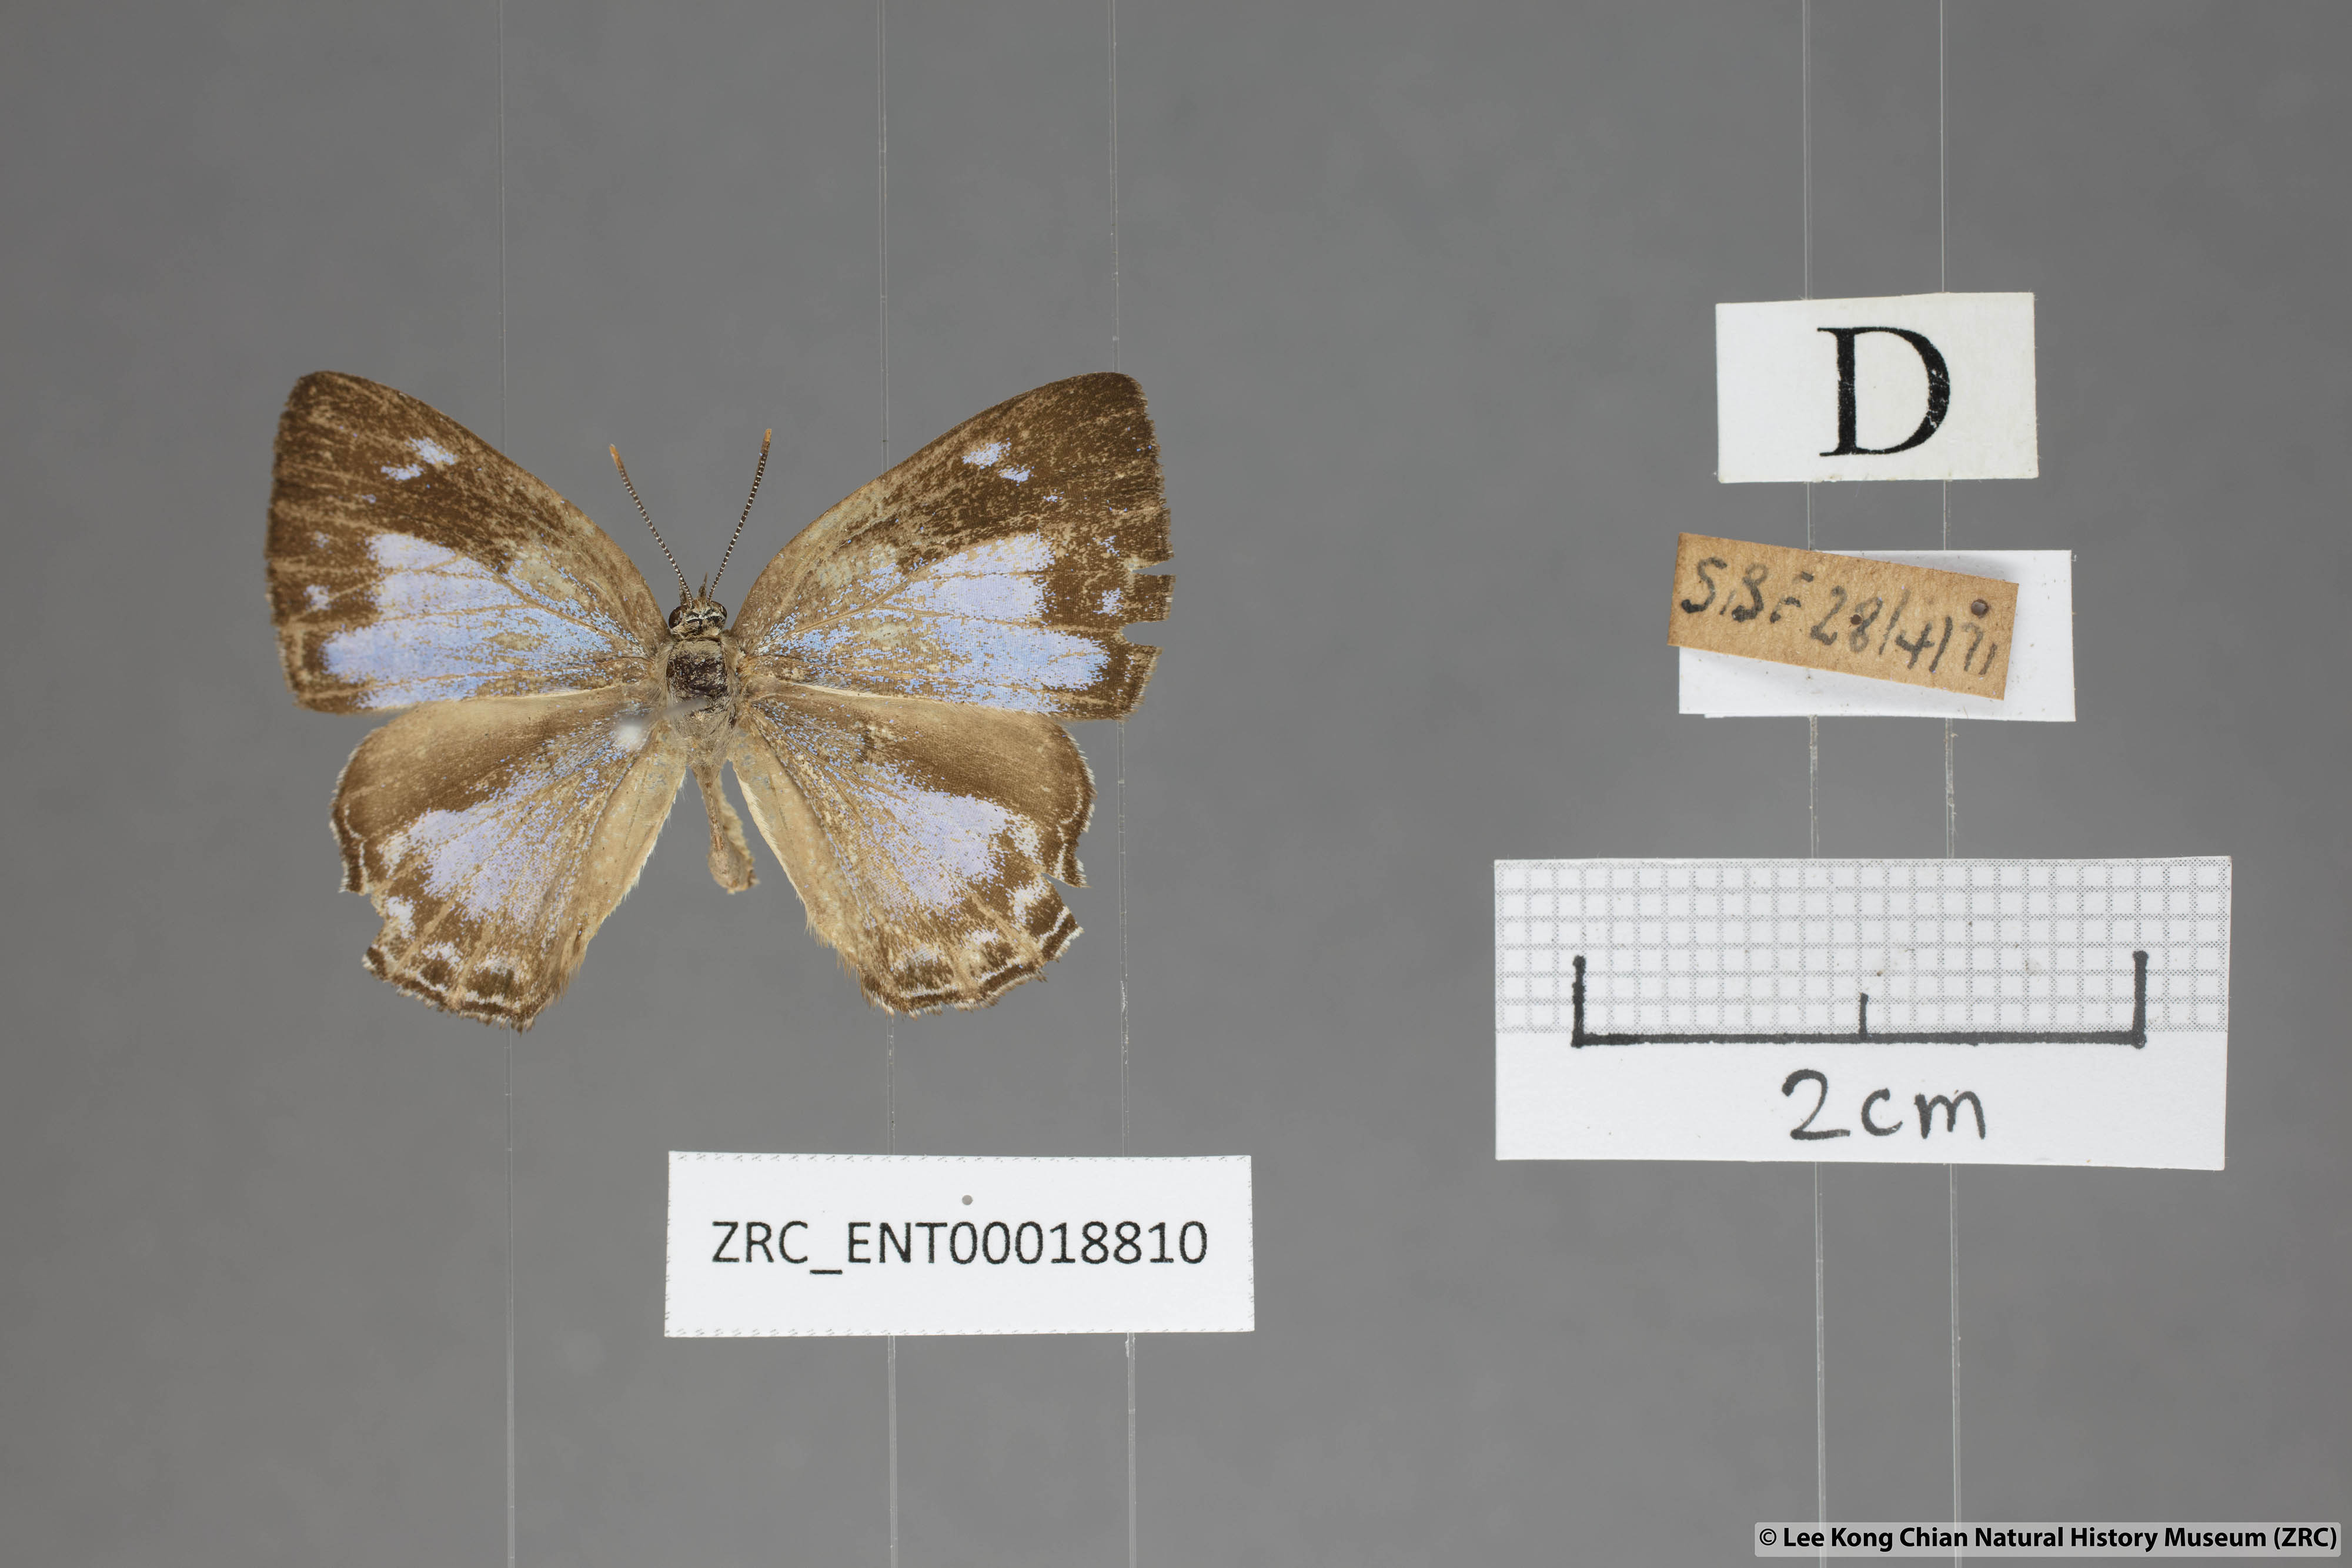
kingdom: Animalia
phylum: Arthropoda
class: Insecta
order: Lepidoptera
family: Lycaenidae
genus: Poritia
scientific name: Poritia pleurata
